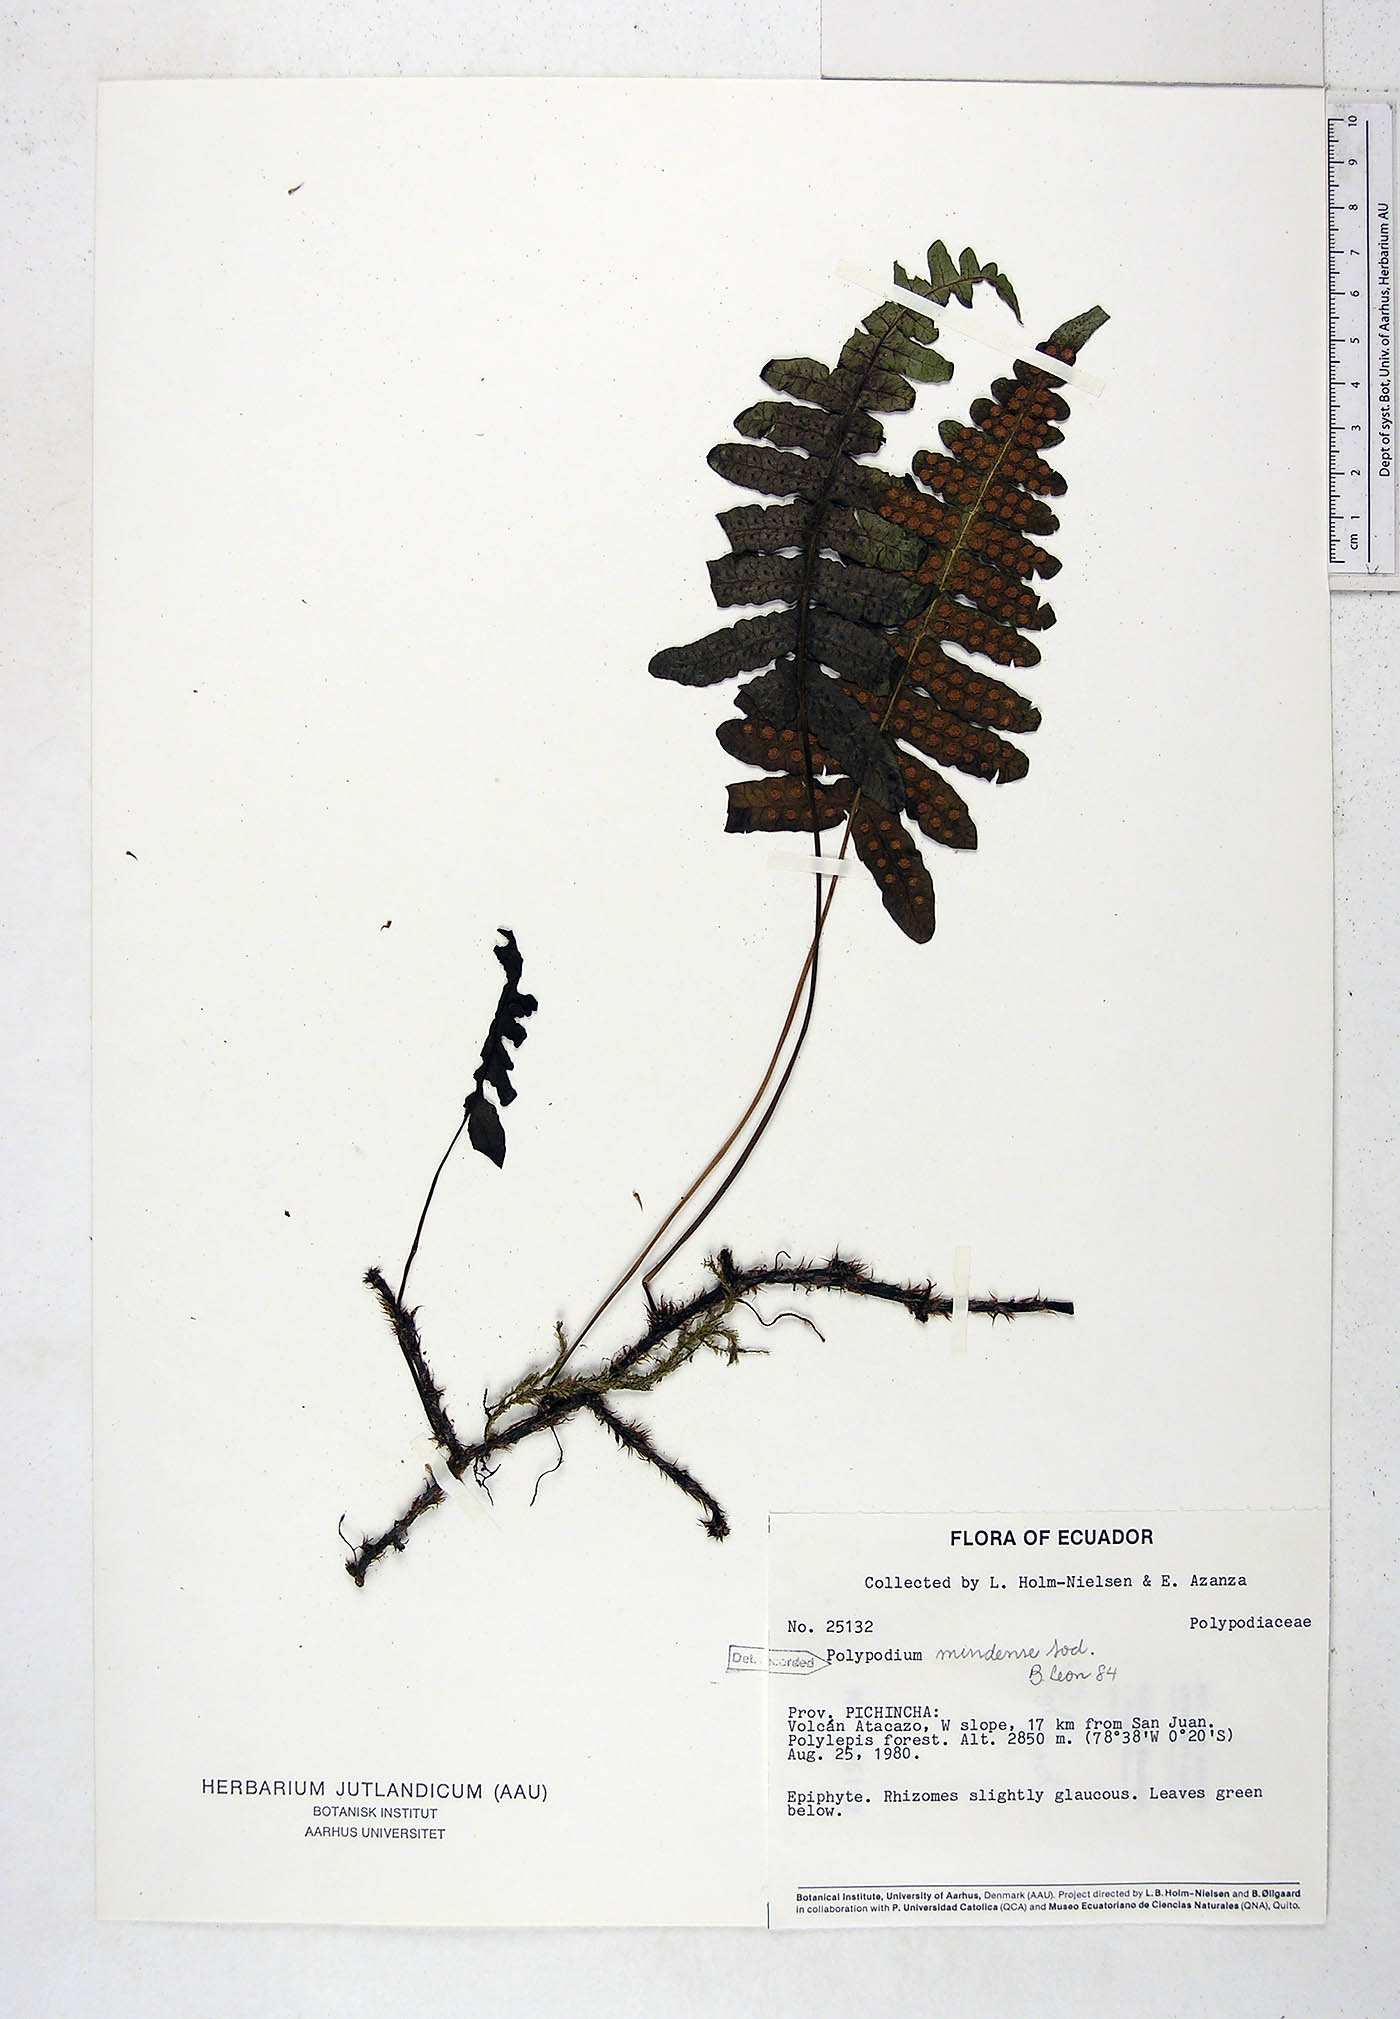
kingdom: Plantae
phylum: Tracheophyta
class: Polypodiopsida
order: Polypodiales
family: Polypodiaceae
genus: Serpocaulon
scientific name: Serpocaulon eleutherophlebium
